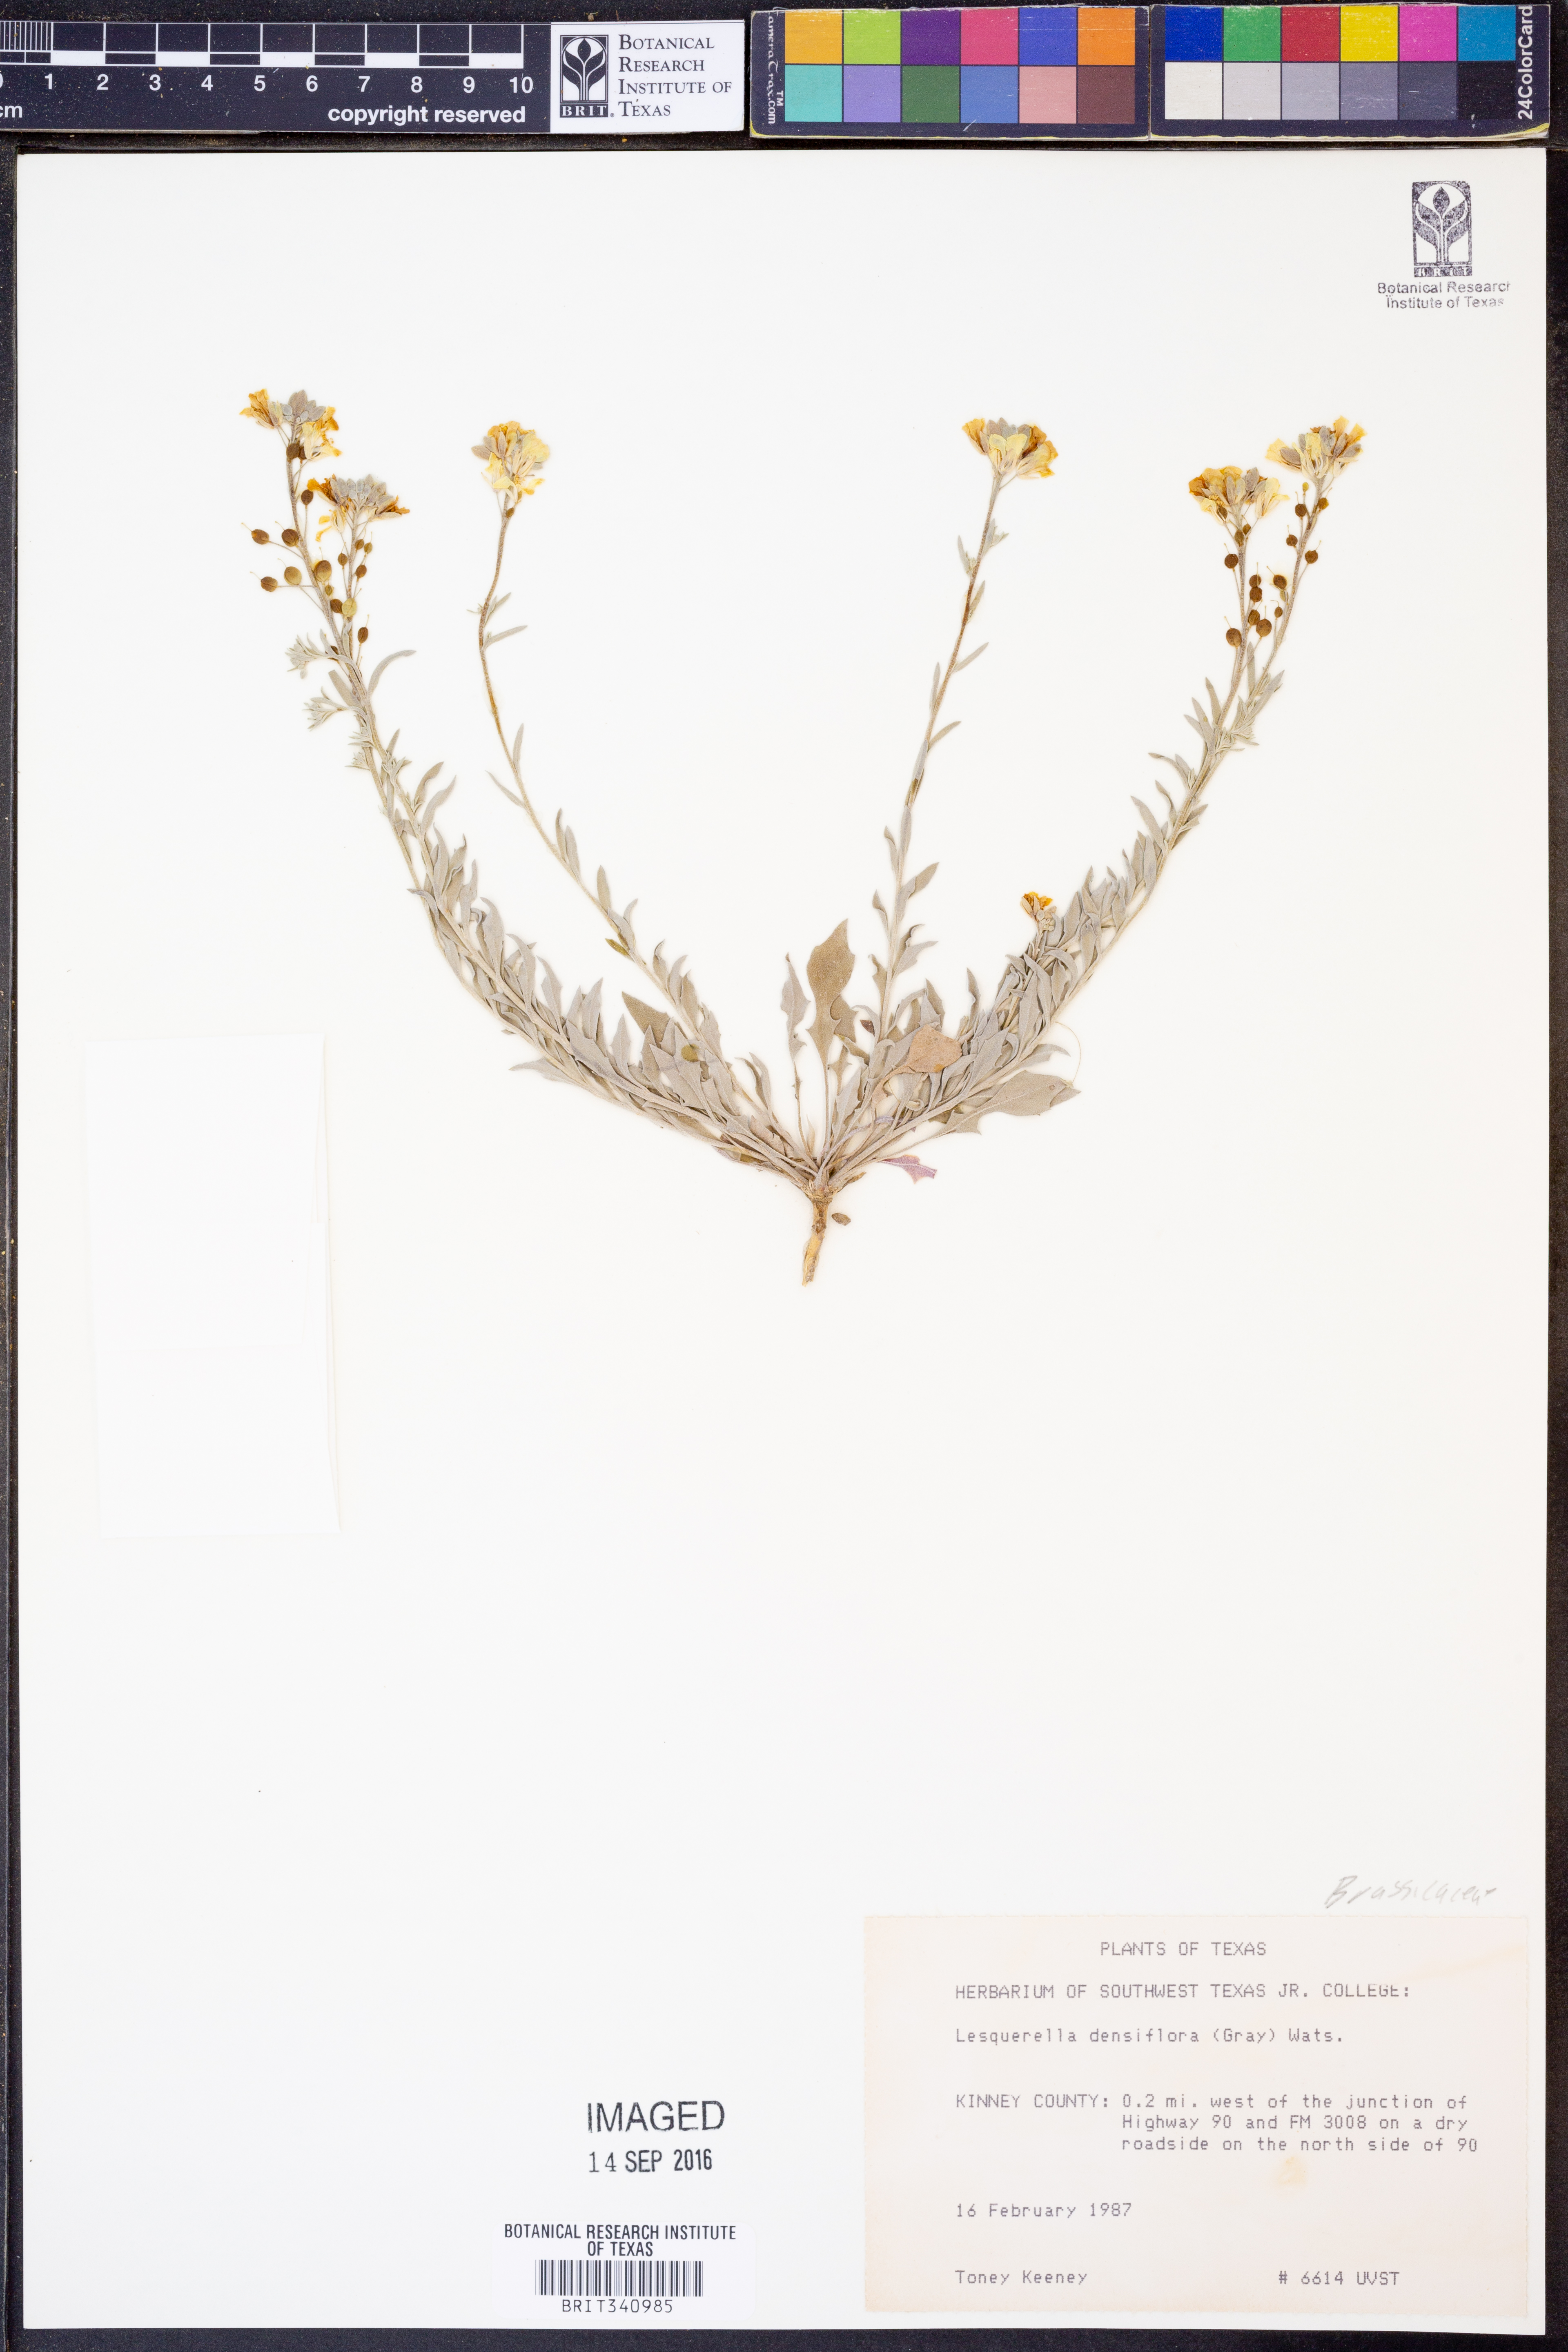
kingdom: Plantae
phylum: Tracheophyta
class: Magnoliopsida
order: Brassicales
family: Brassicaceae
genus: Physaria
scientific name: Physaria densiflora
